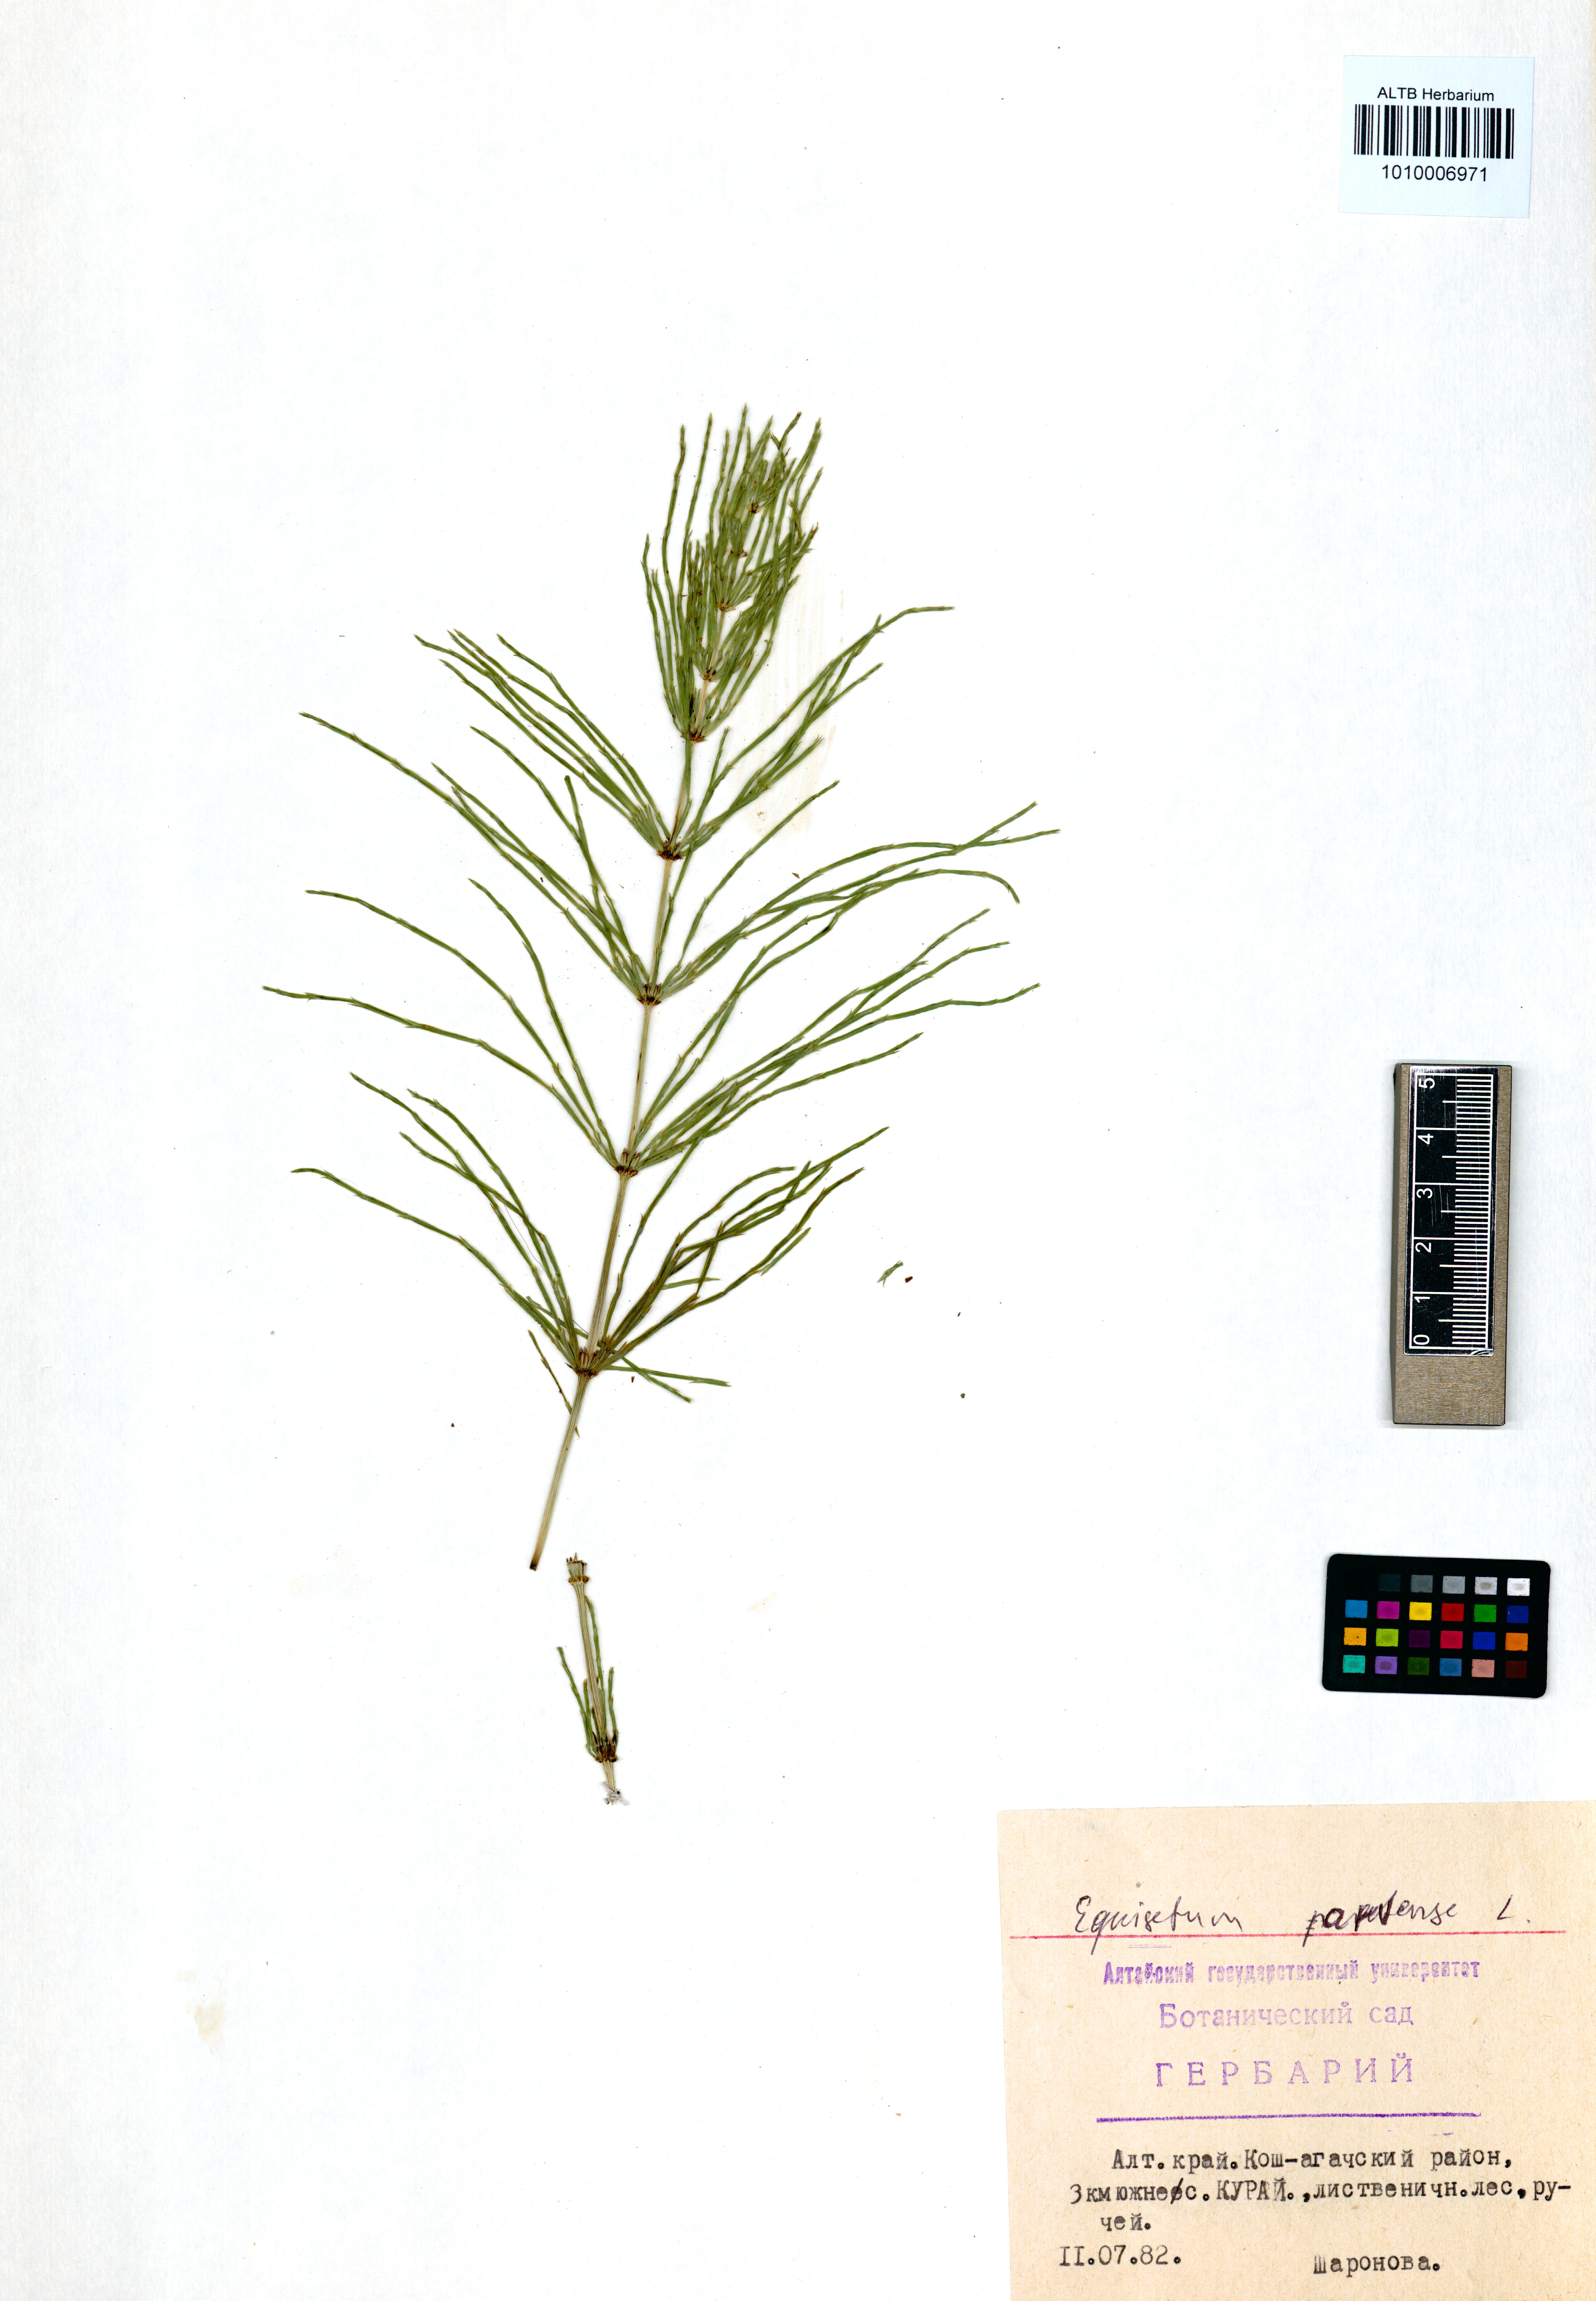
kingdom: Plantae
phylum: Tracheophyta
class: Polypodiopsida
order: Equisetales
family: Equisetaceae
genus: Equisetum
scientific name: Equisetum pratense
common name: Meadow horsetail
